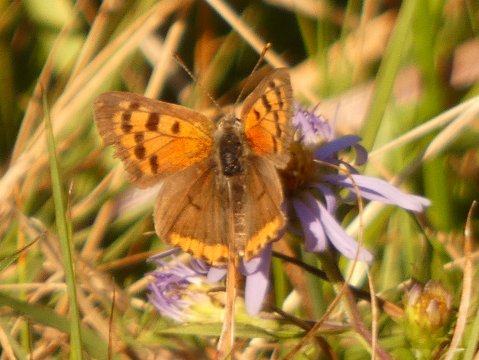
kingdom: Animalia
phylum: Arthropoda
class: Insecta
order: Lepidoptera
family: Lycaenidae
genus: Lycaena
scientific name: Lycaena phlaeas
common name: American Copper
